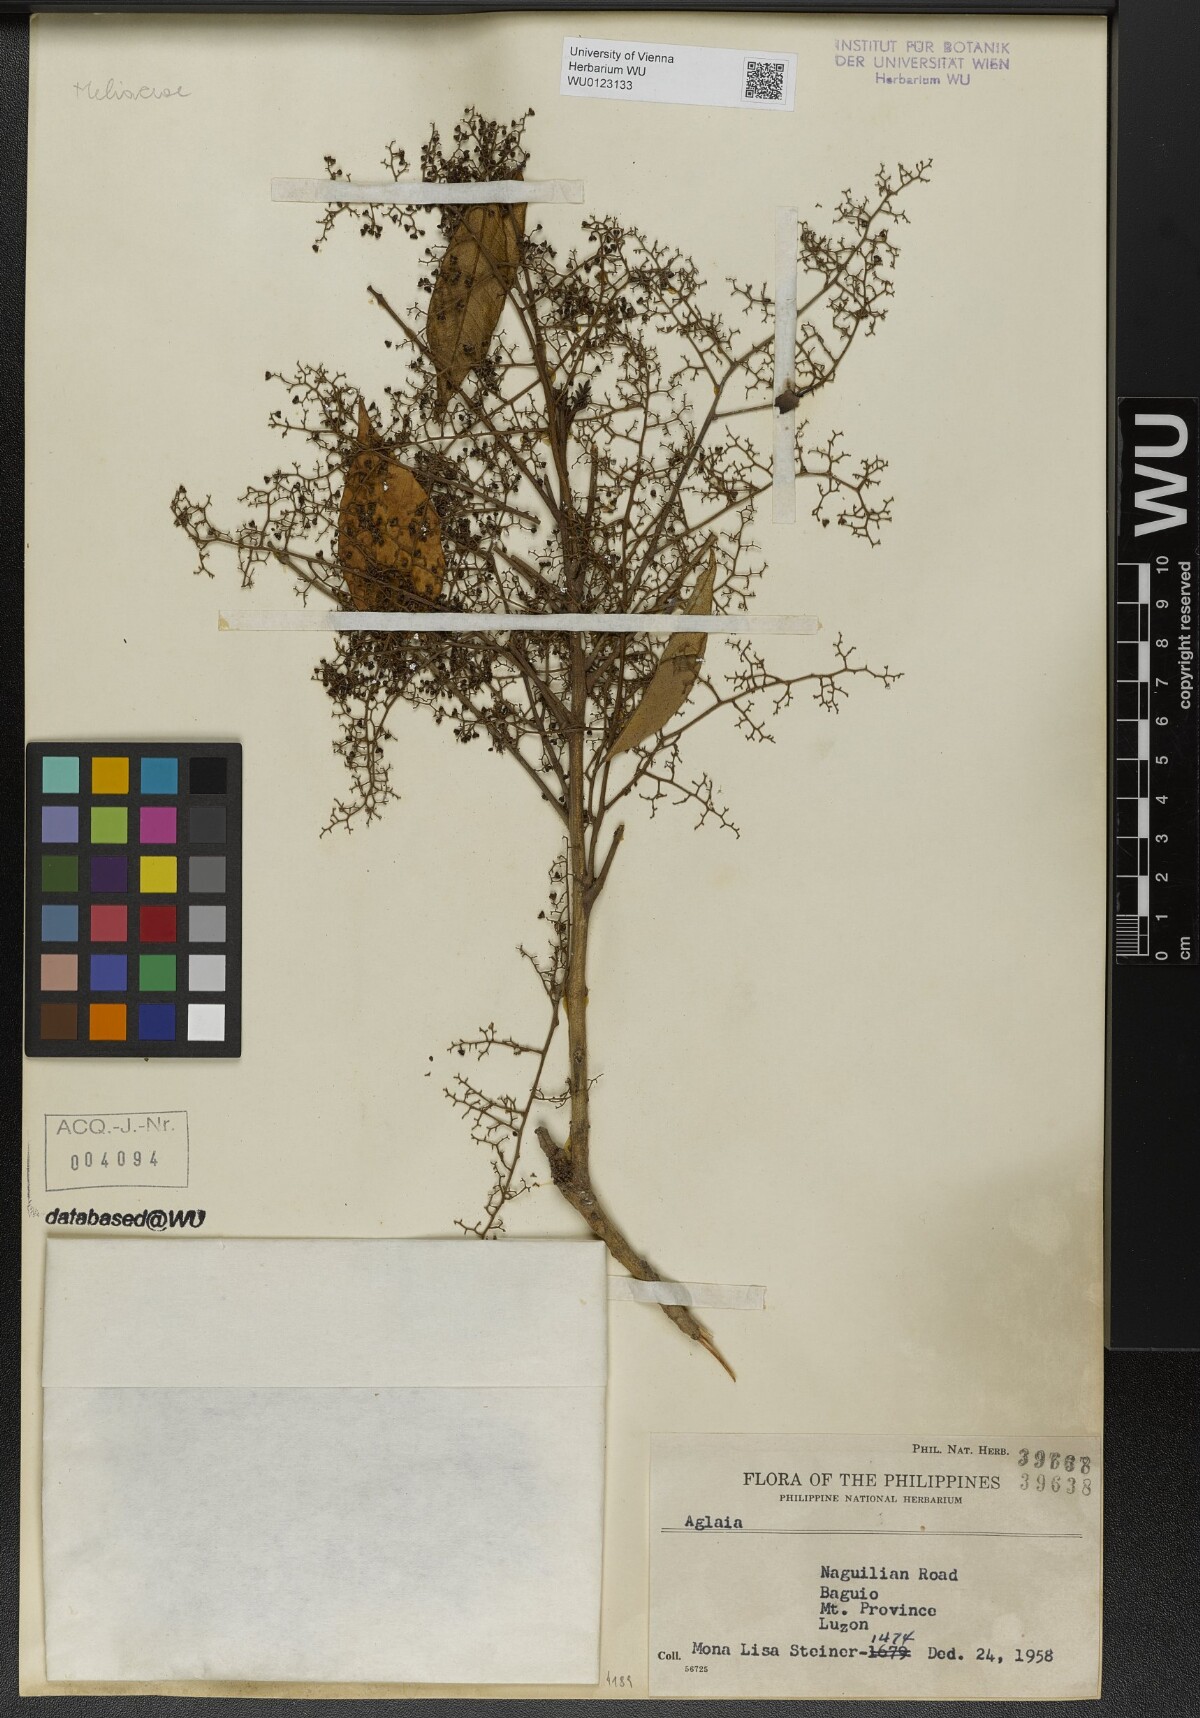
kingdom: Plantae
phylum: Tracheophyta
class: Magnoliopsida
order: Sapindales
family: Meliaceae
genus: Aglaia
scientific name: Aglaia
